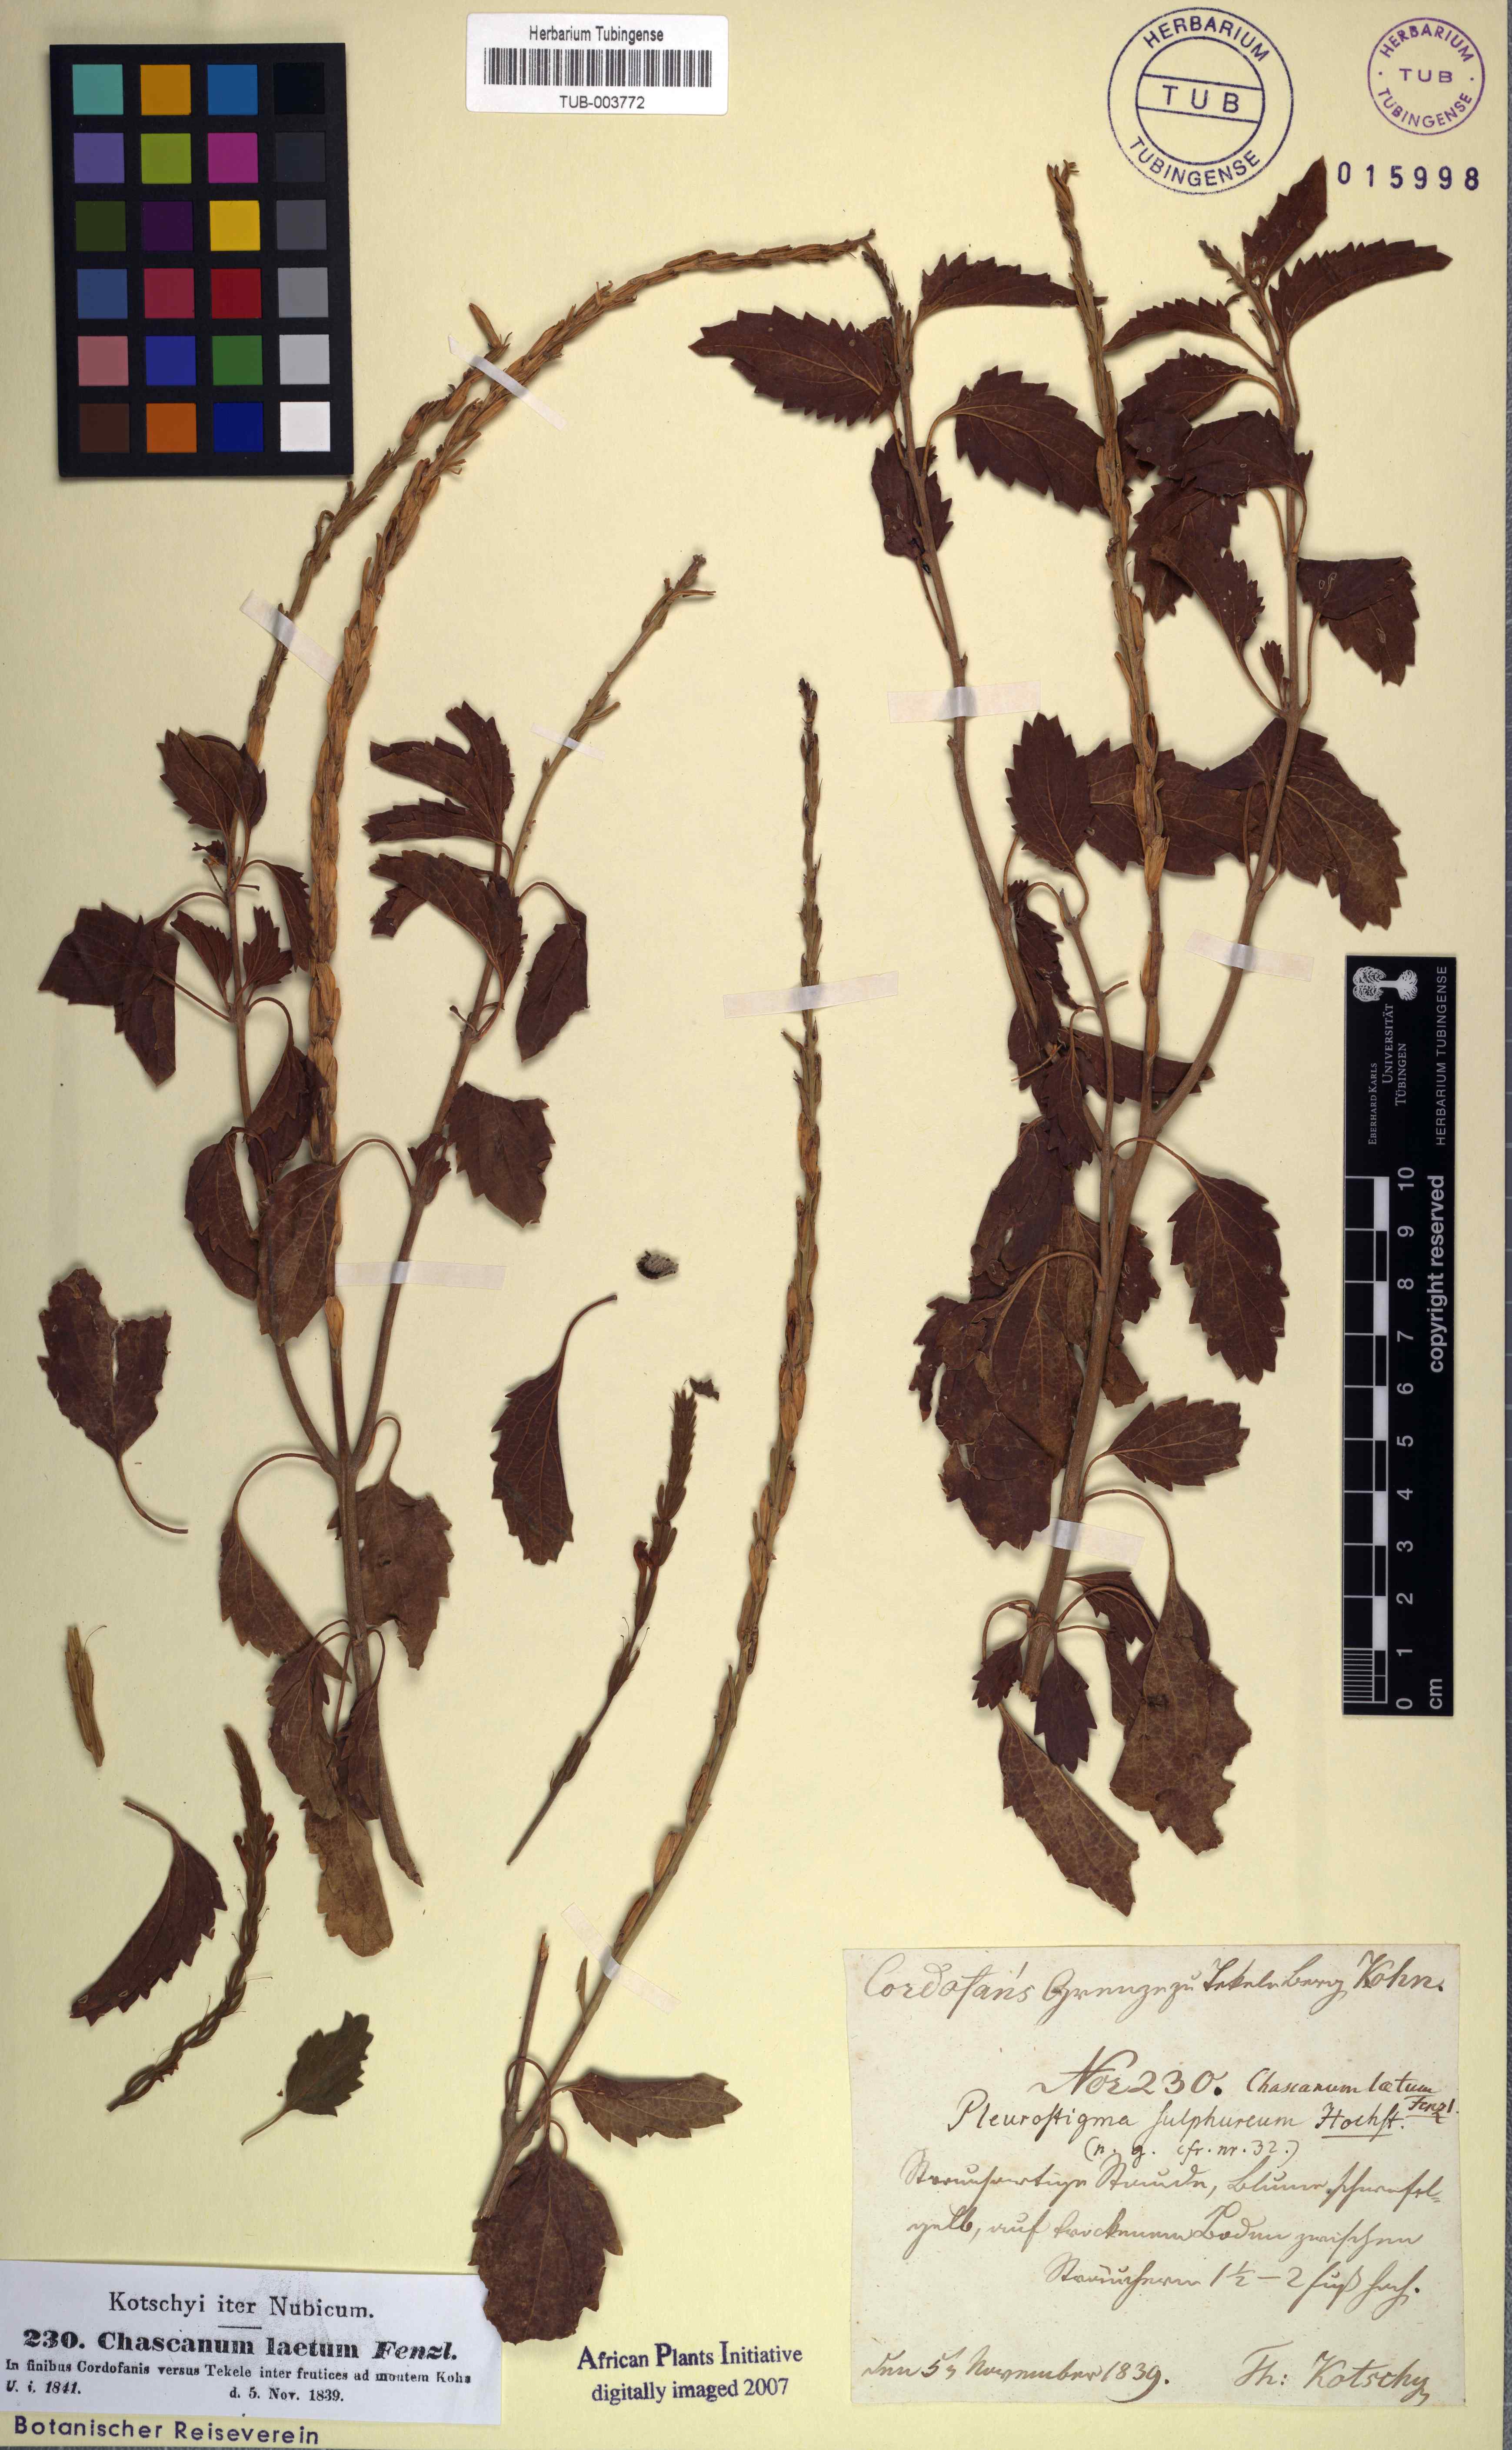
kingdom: Plantae
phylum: Tracheophyta
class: Magnoliopsida
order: Lamiales
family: Verbenaceae
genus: Chascanum
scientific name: Chascanum laetum
